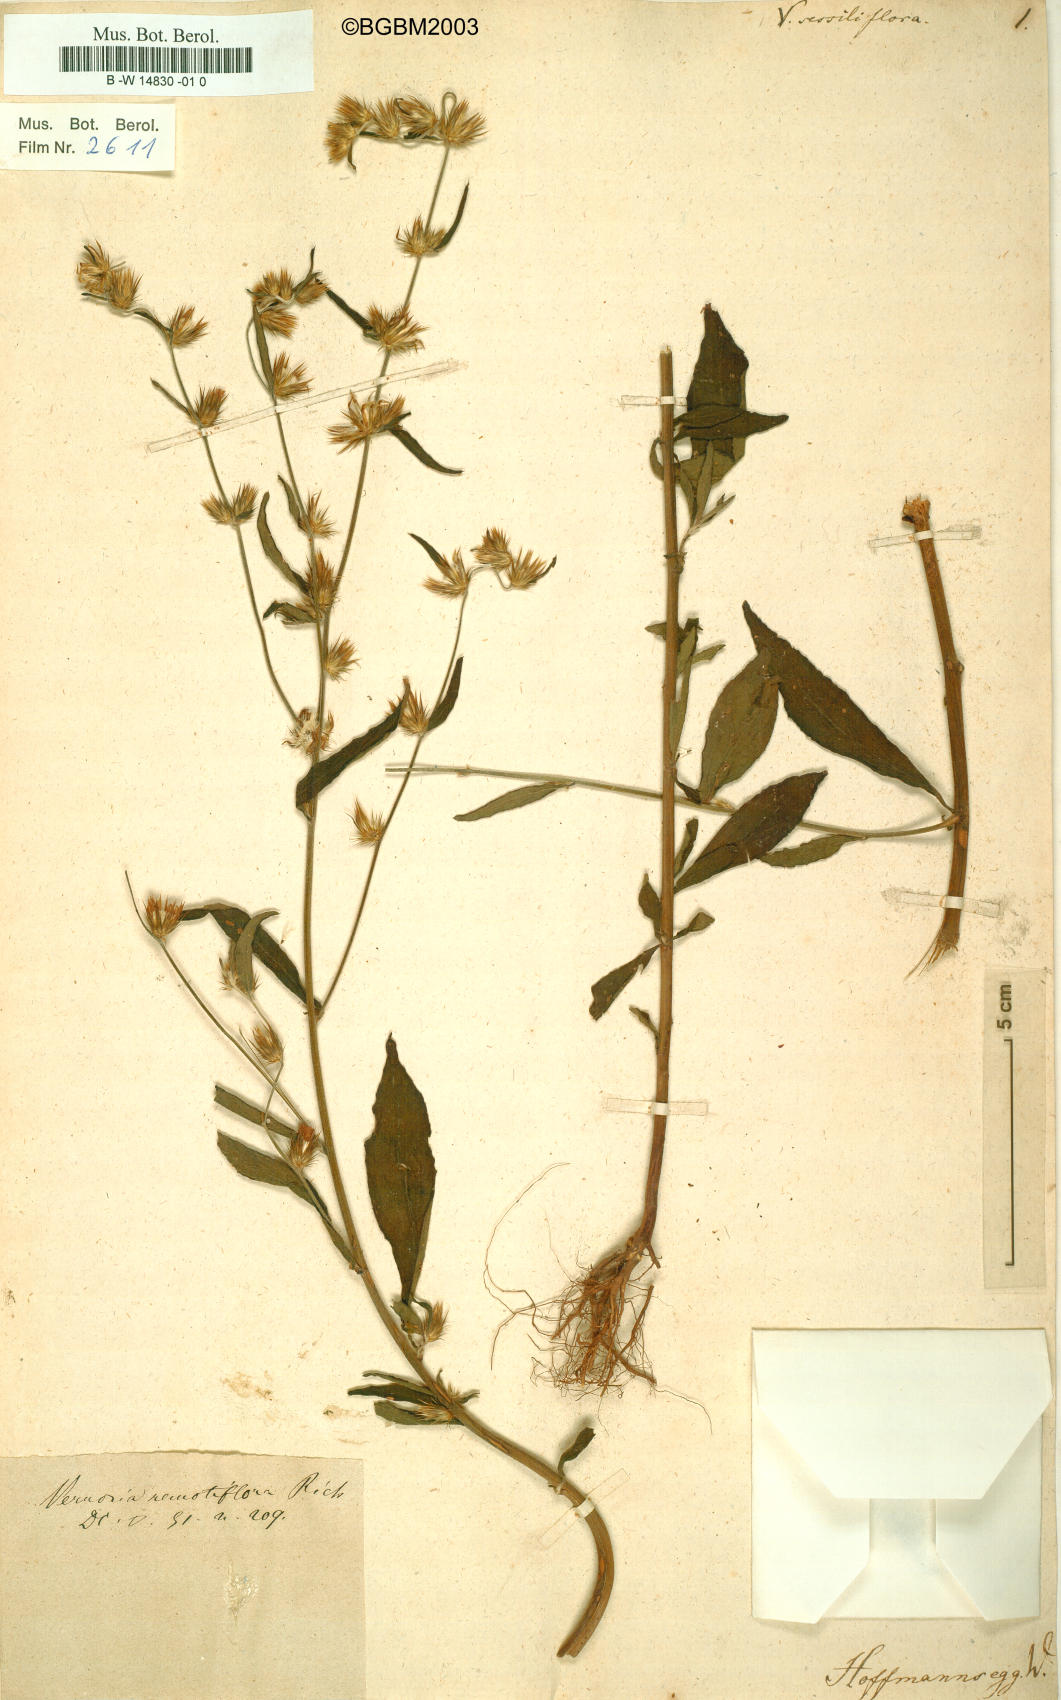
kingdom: Plantae
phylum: Tracheophyta
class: Magnoliopsida
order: Asterales
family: Asteraceae
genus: Lepidaploa
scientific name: Lepidaploa
